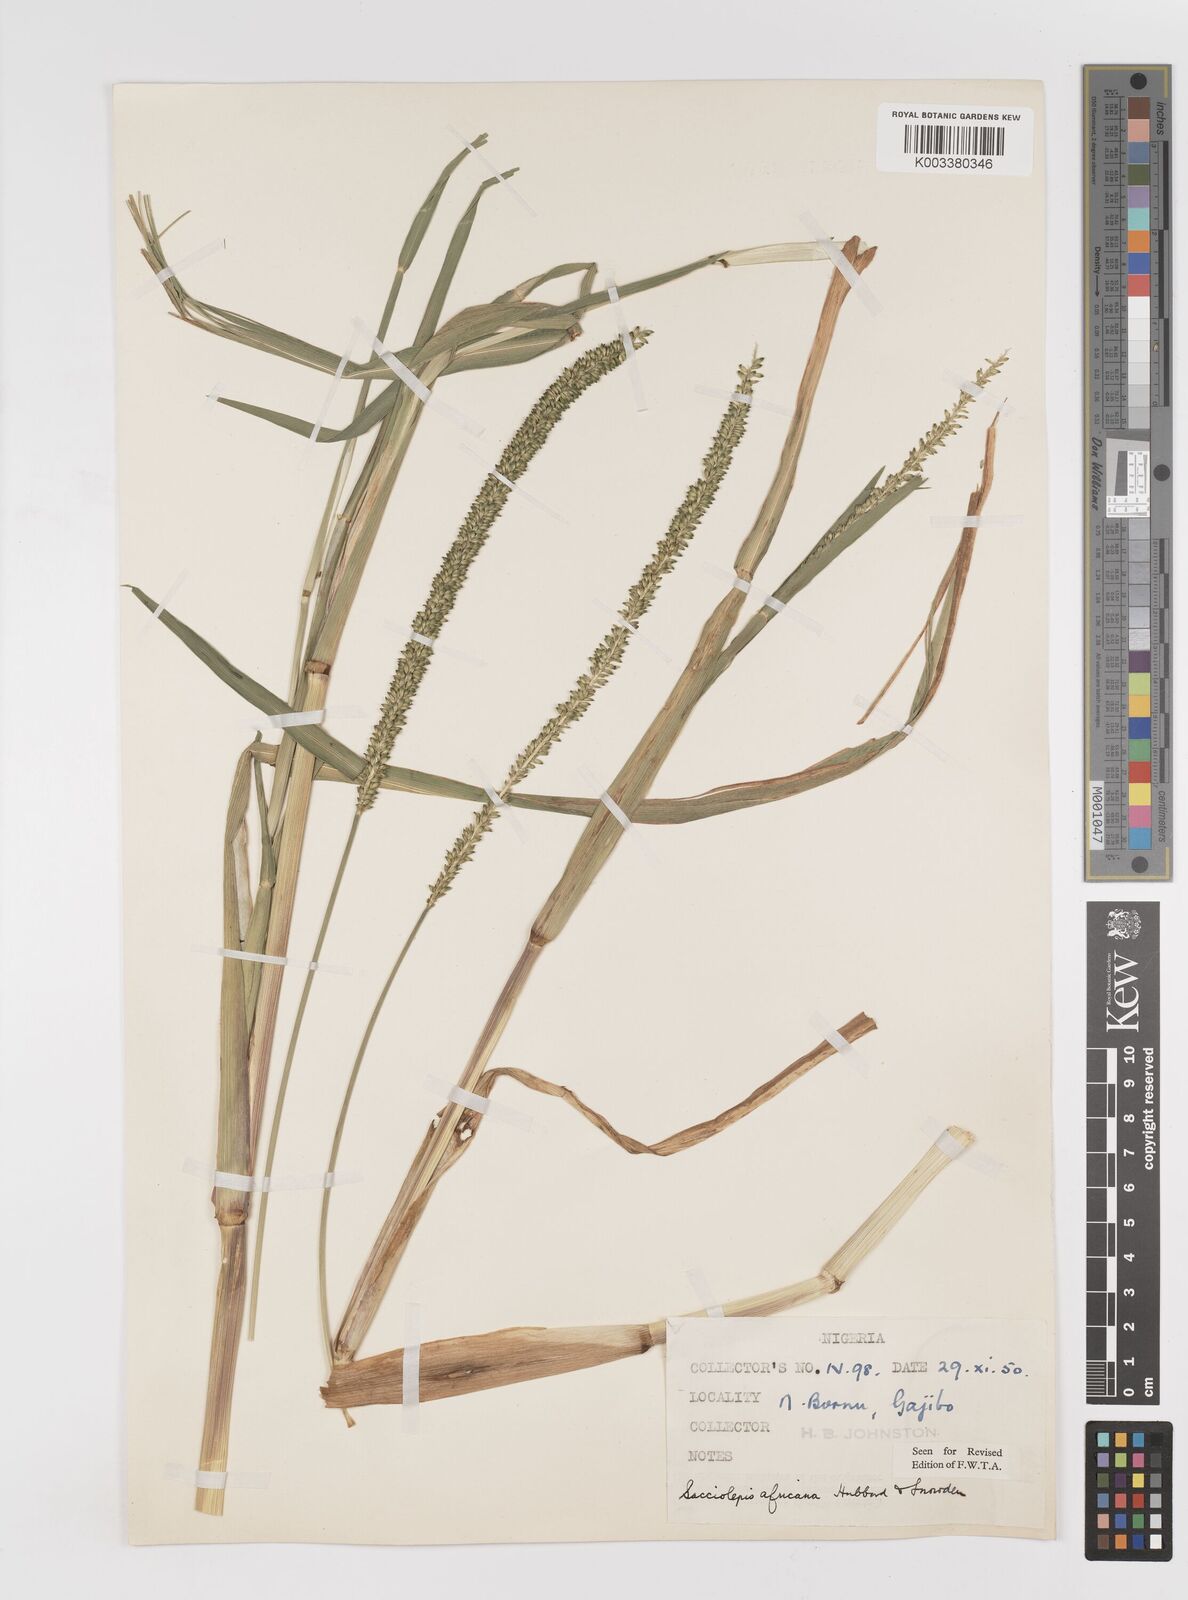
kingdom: Plantae
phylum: Tracheophyta
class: Liliopsida
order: Poales
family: Poaceae
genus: Sacciolepis
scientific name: Sacciolepis africana
